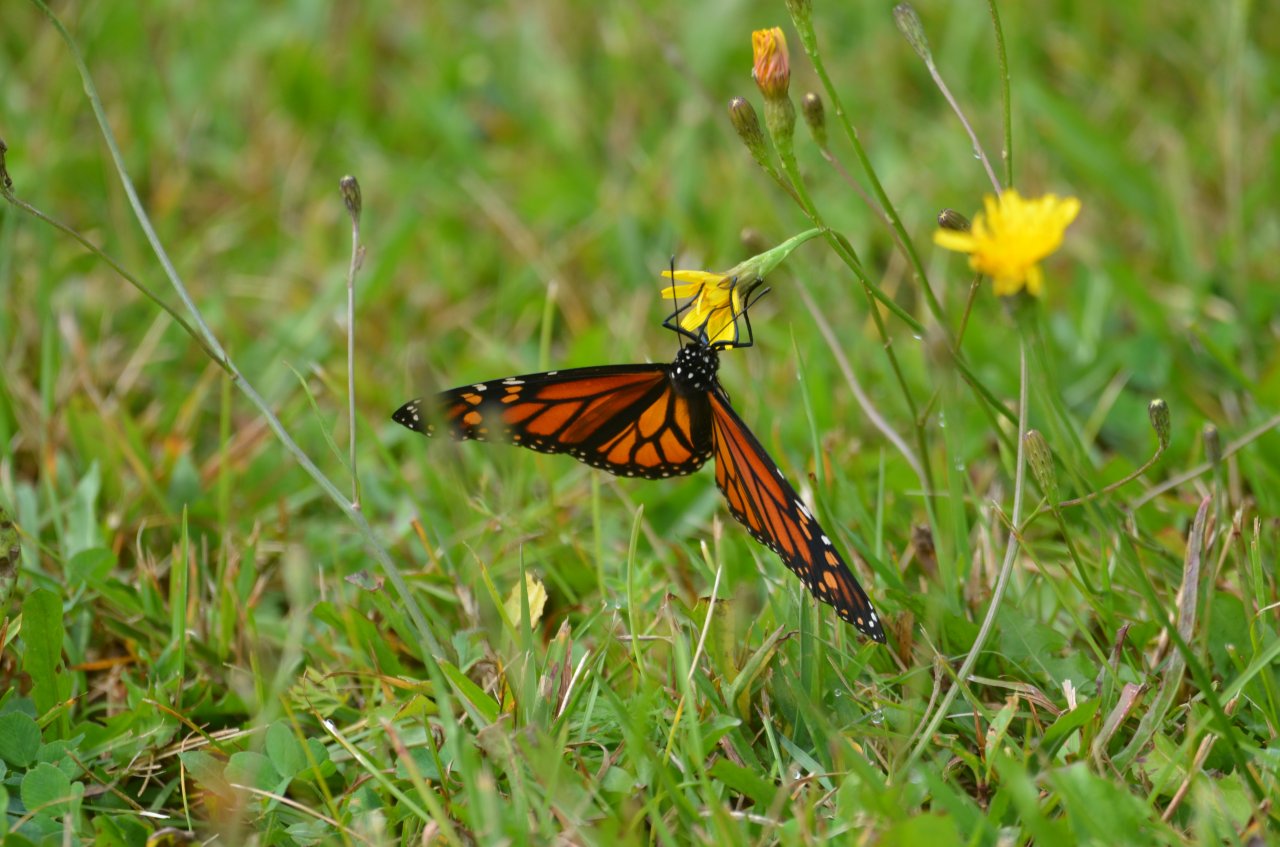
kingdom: Animalia
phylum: Arthropoda
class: Insecta
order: Lepidoptera
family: Nymphalidae
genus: Danaus
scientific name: Danaus plexippus
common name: Monarch
